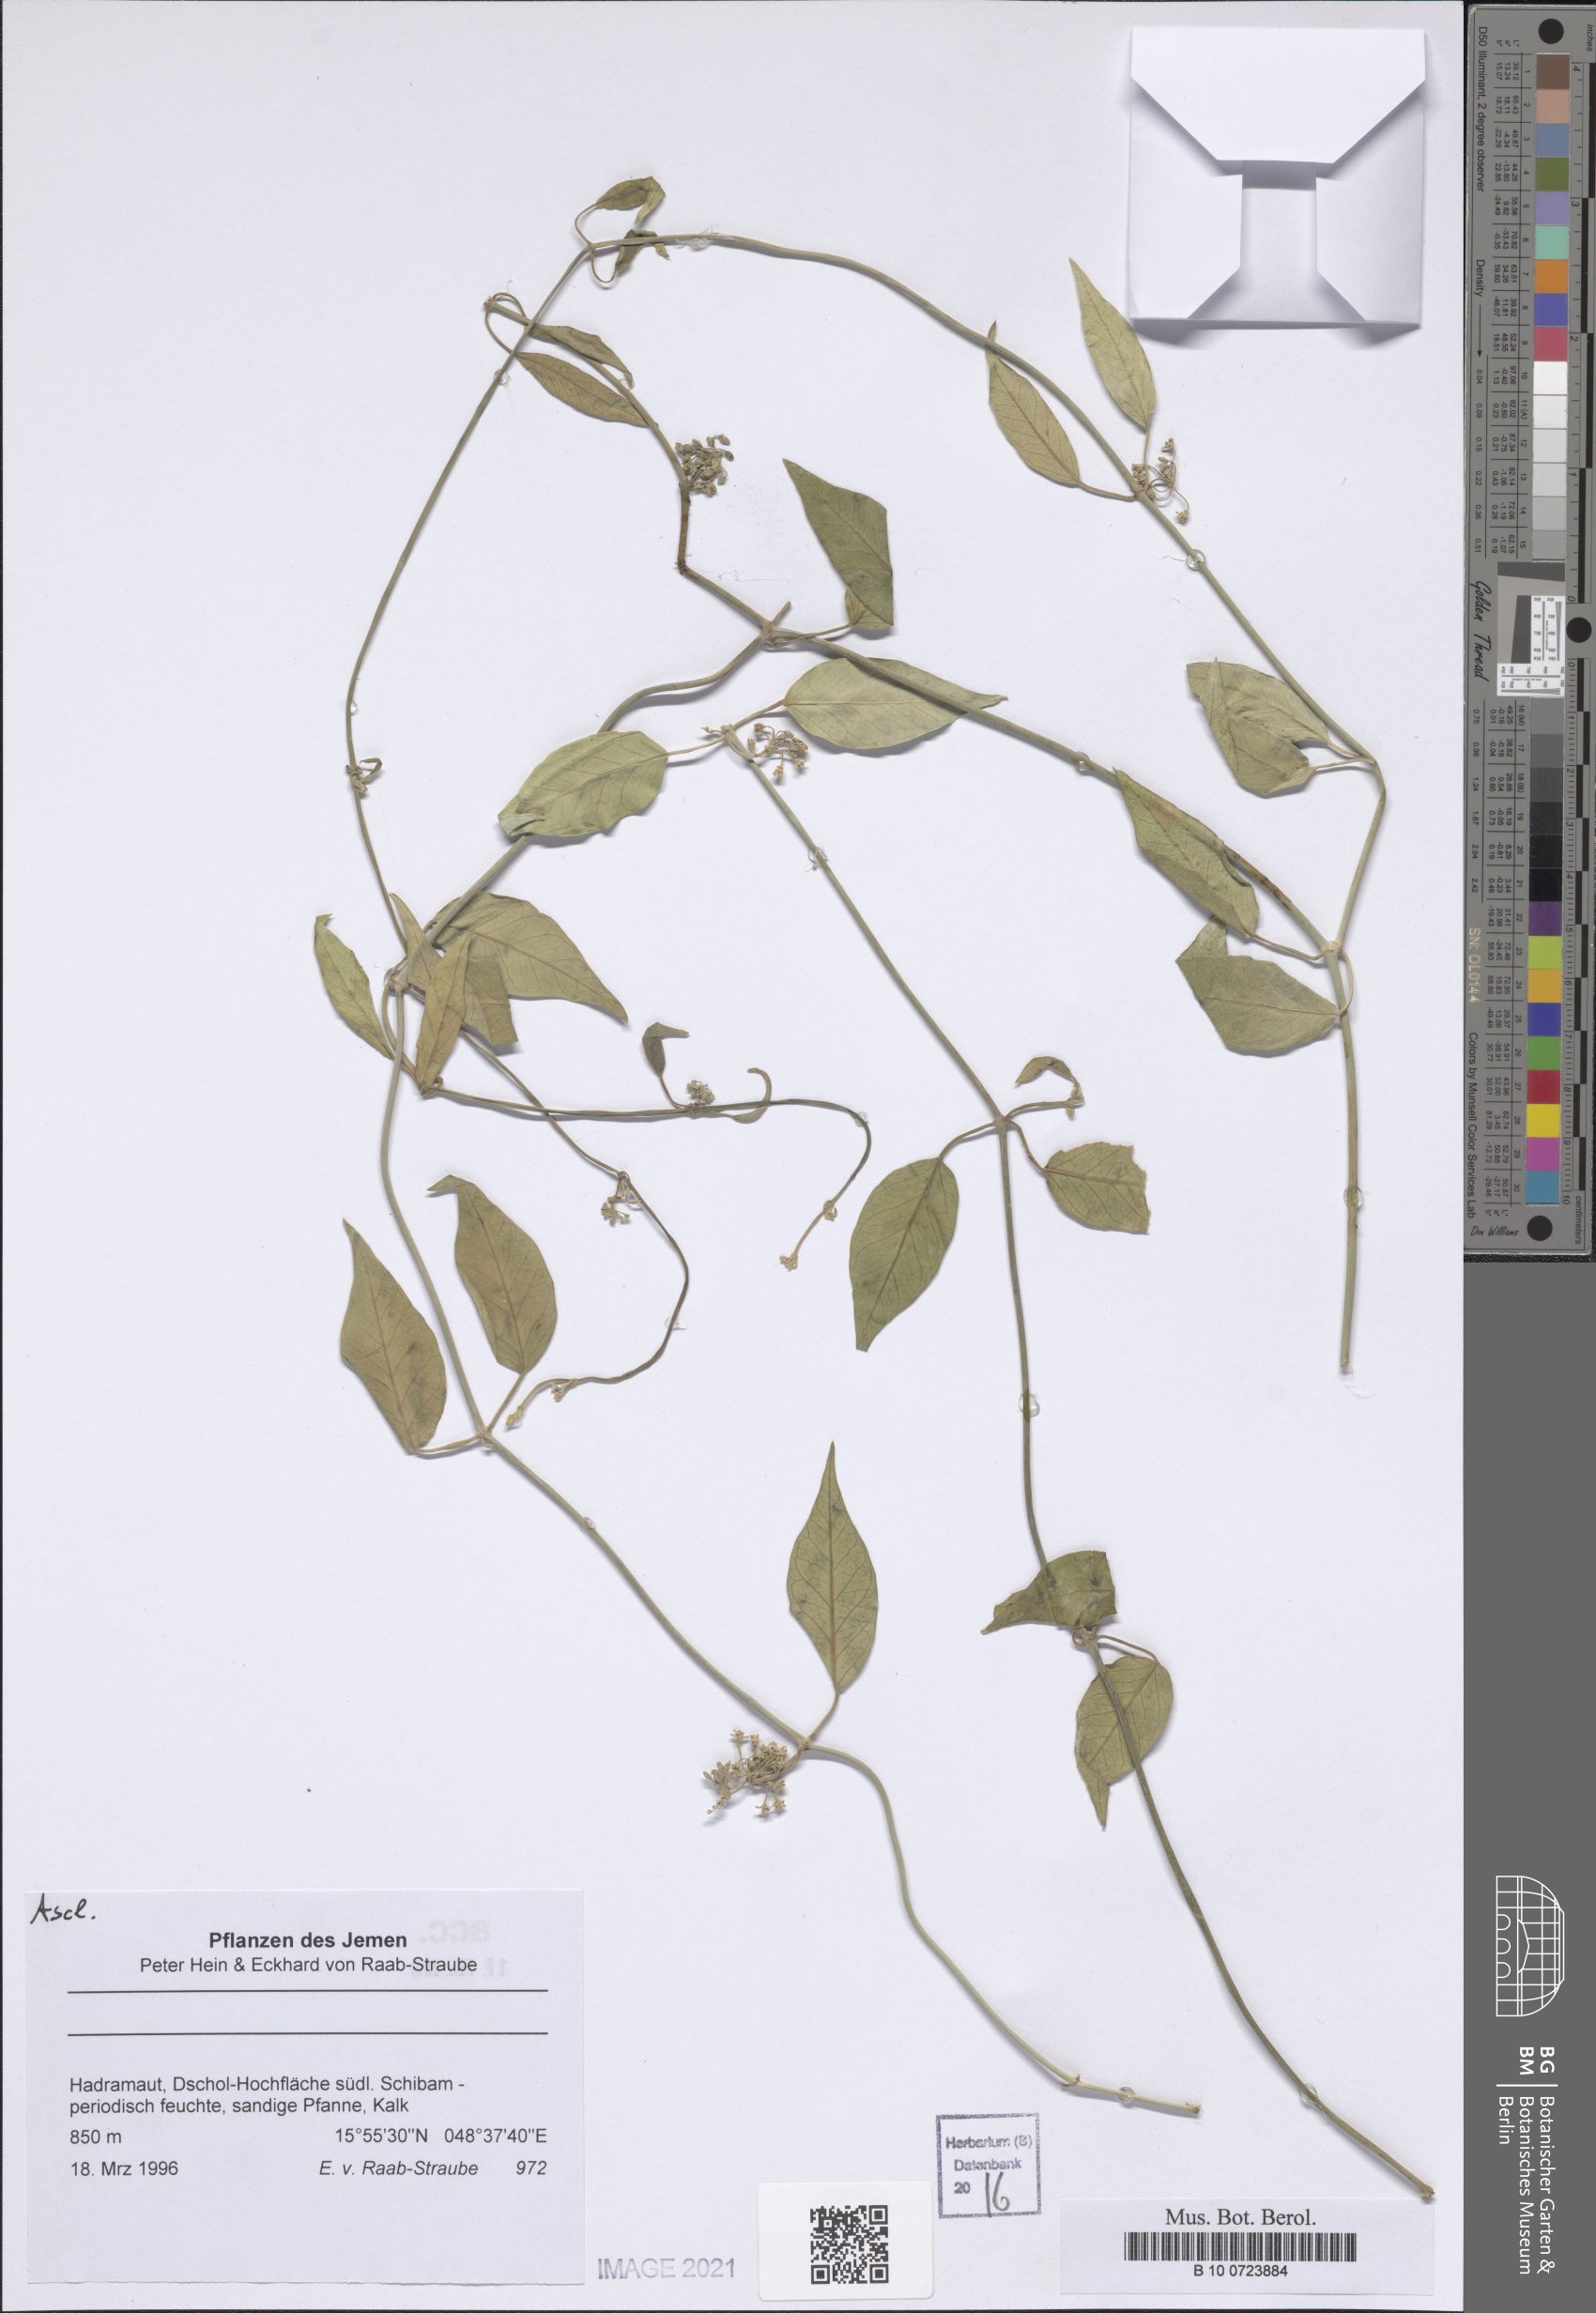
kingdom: Plantae
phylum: Tracheophyta
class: Magnoliopsida
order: Gentianales
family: Apocynaceae
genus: Leptadenia
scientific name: Leptadenia arborea
